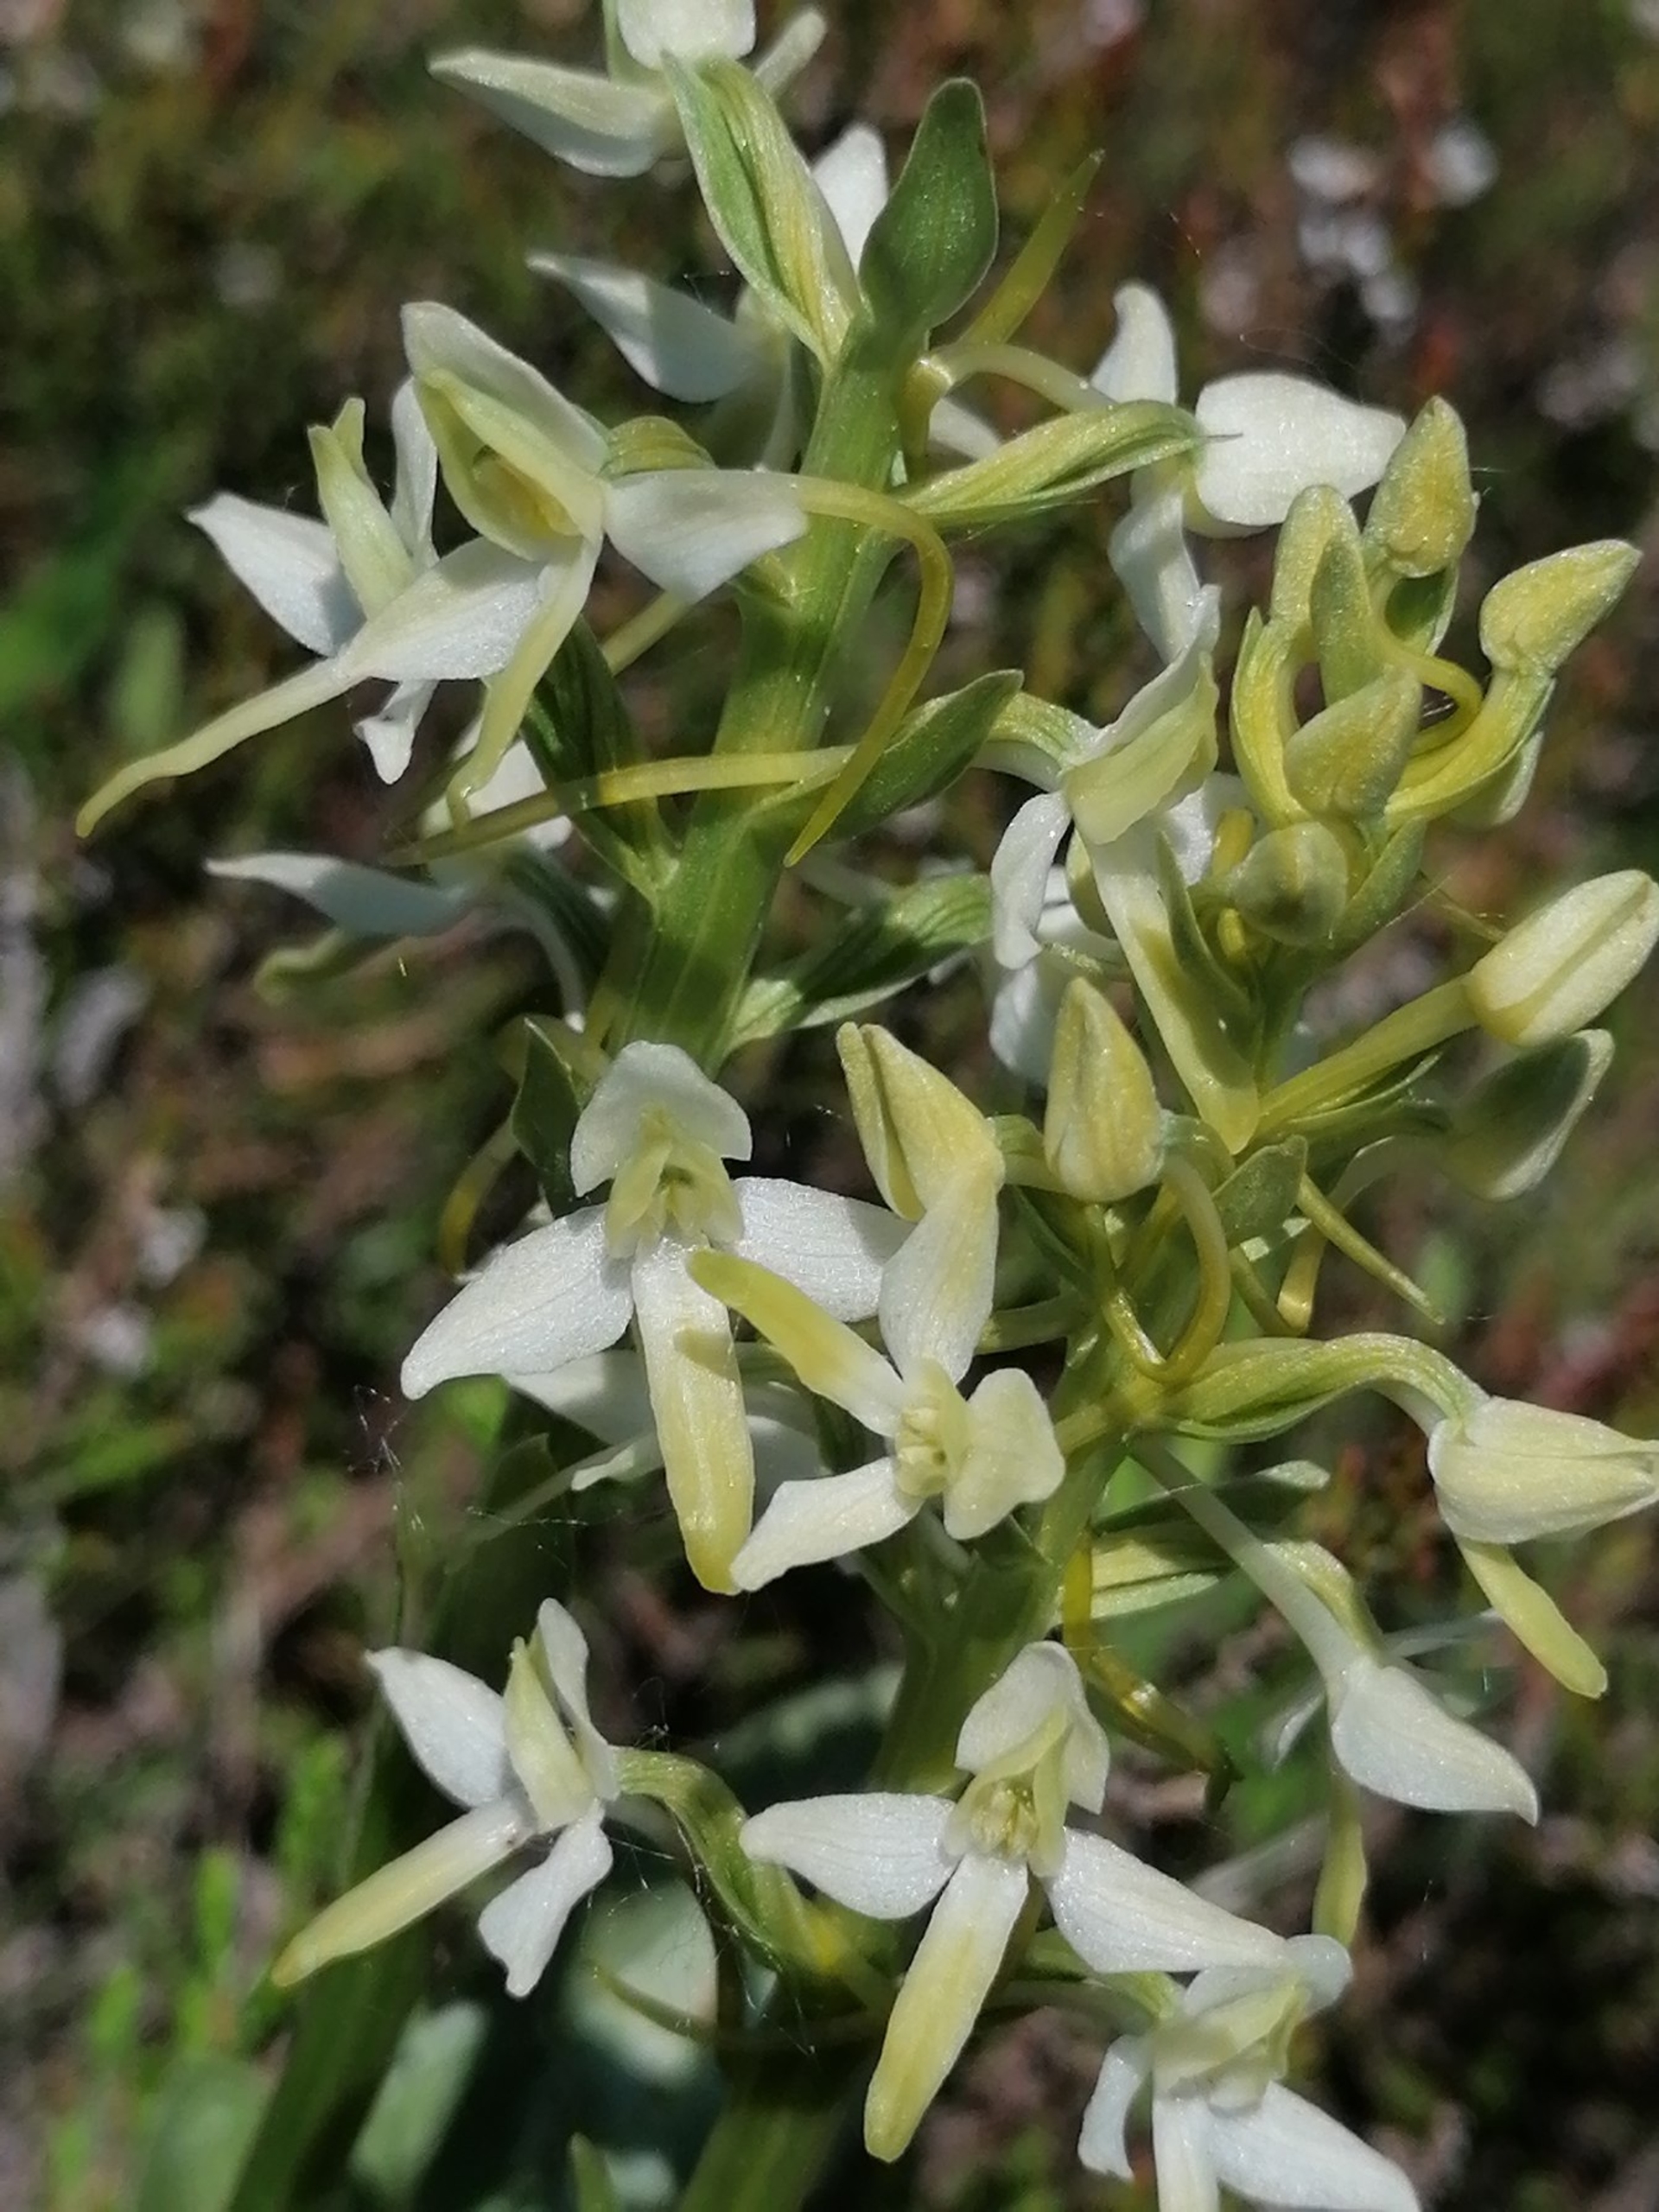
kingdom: Plantae
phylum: Tracheophyta
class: Liliopsida
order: Asparagales
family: Orchidaceae
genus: Platanthera
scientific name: Platanthera bifolia
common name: Bakke-gøgelilje
